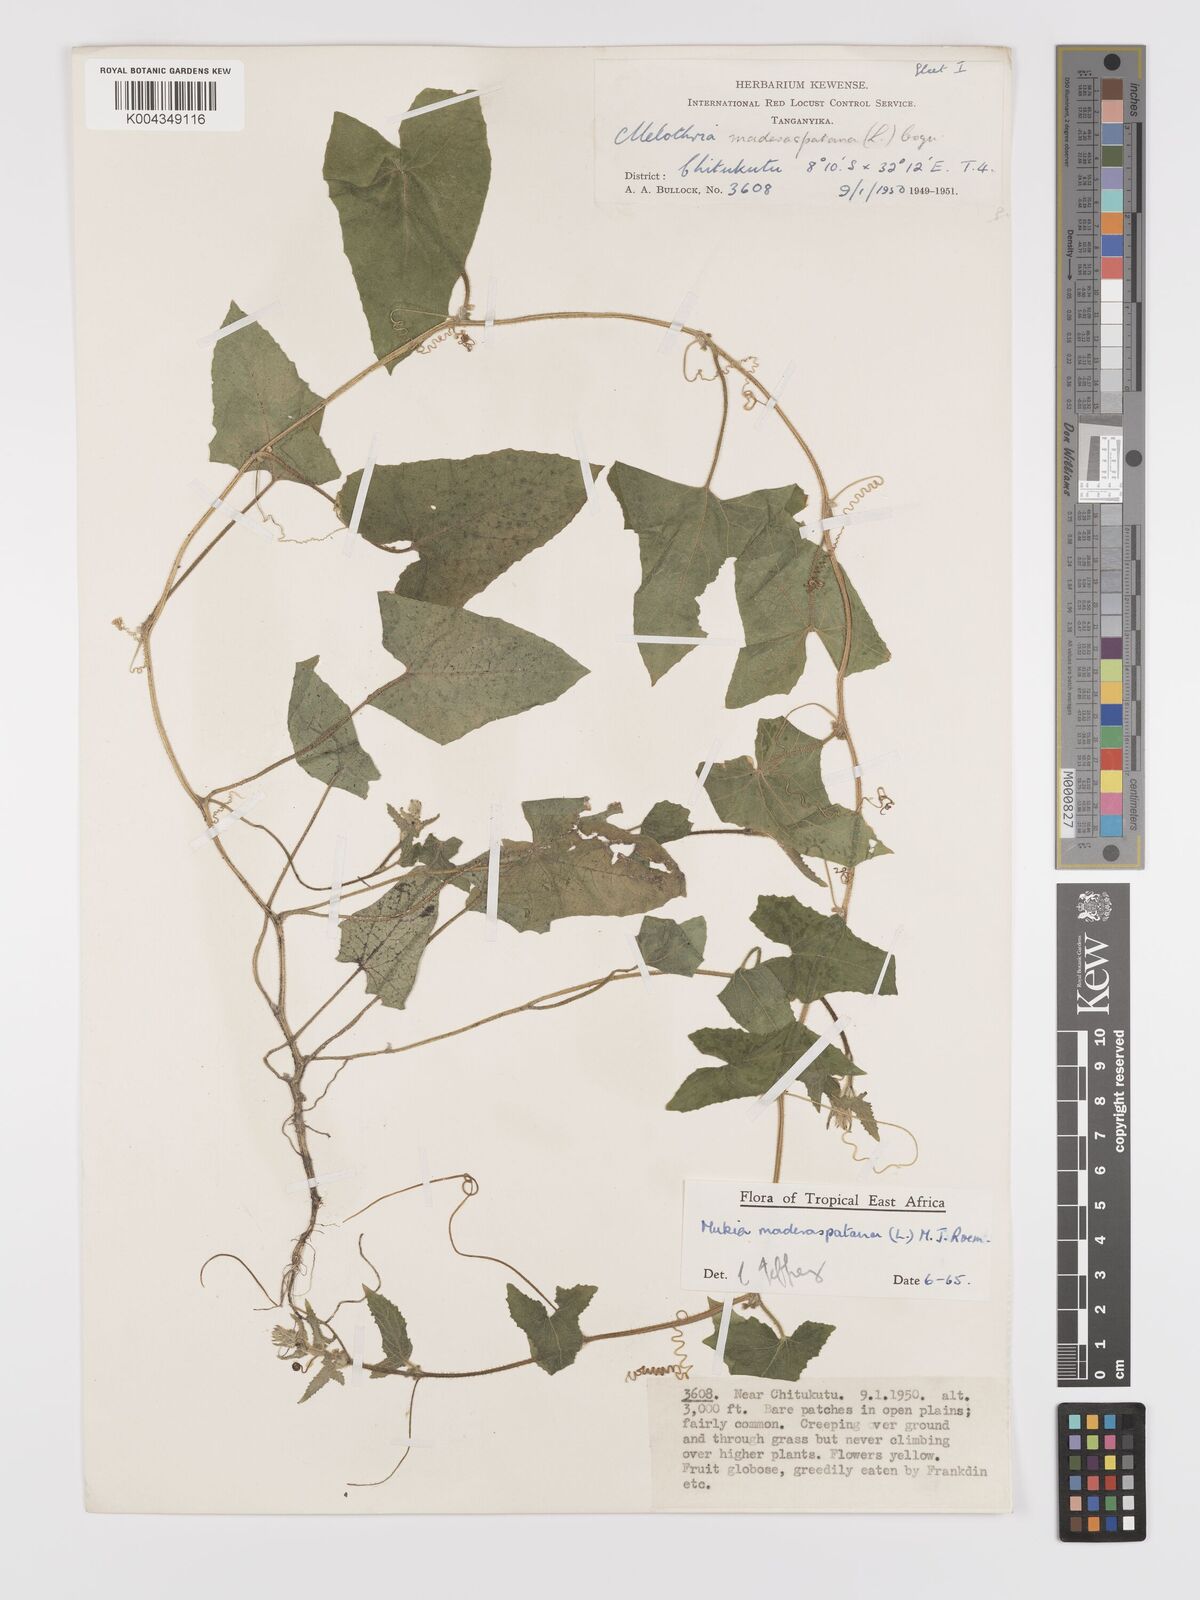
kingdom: Plantae
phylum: Tracheophyta
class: Magnoliopsida
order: Cucurbitales
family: Cucurbitaceae
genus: Cucumis
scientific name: Cucumis maderaspatanus
